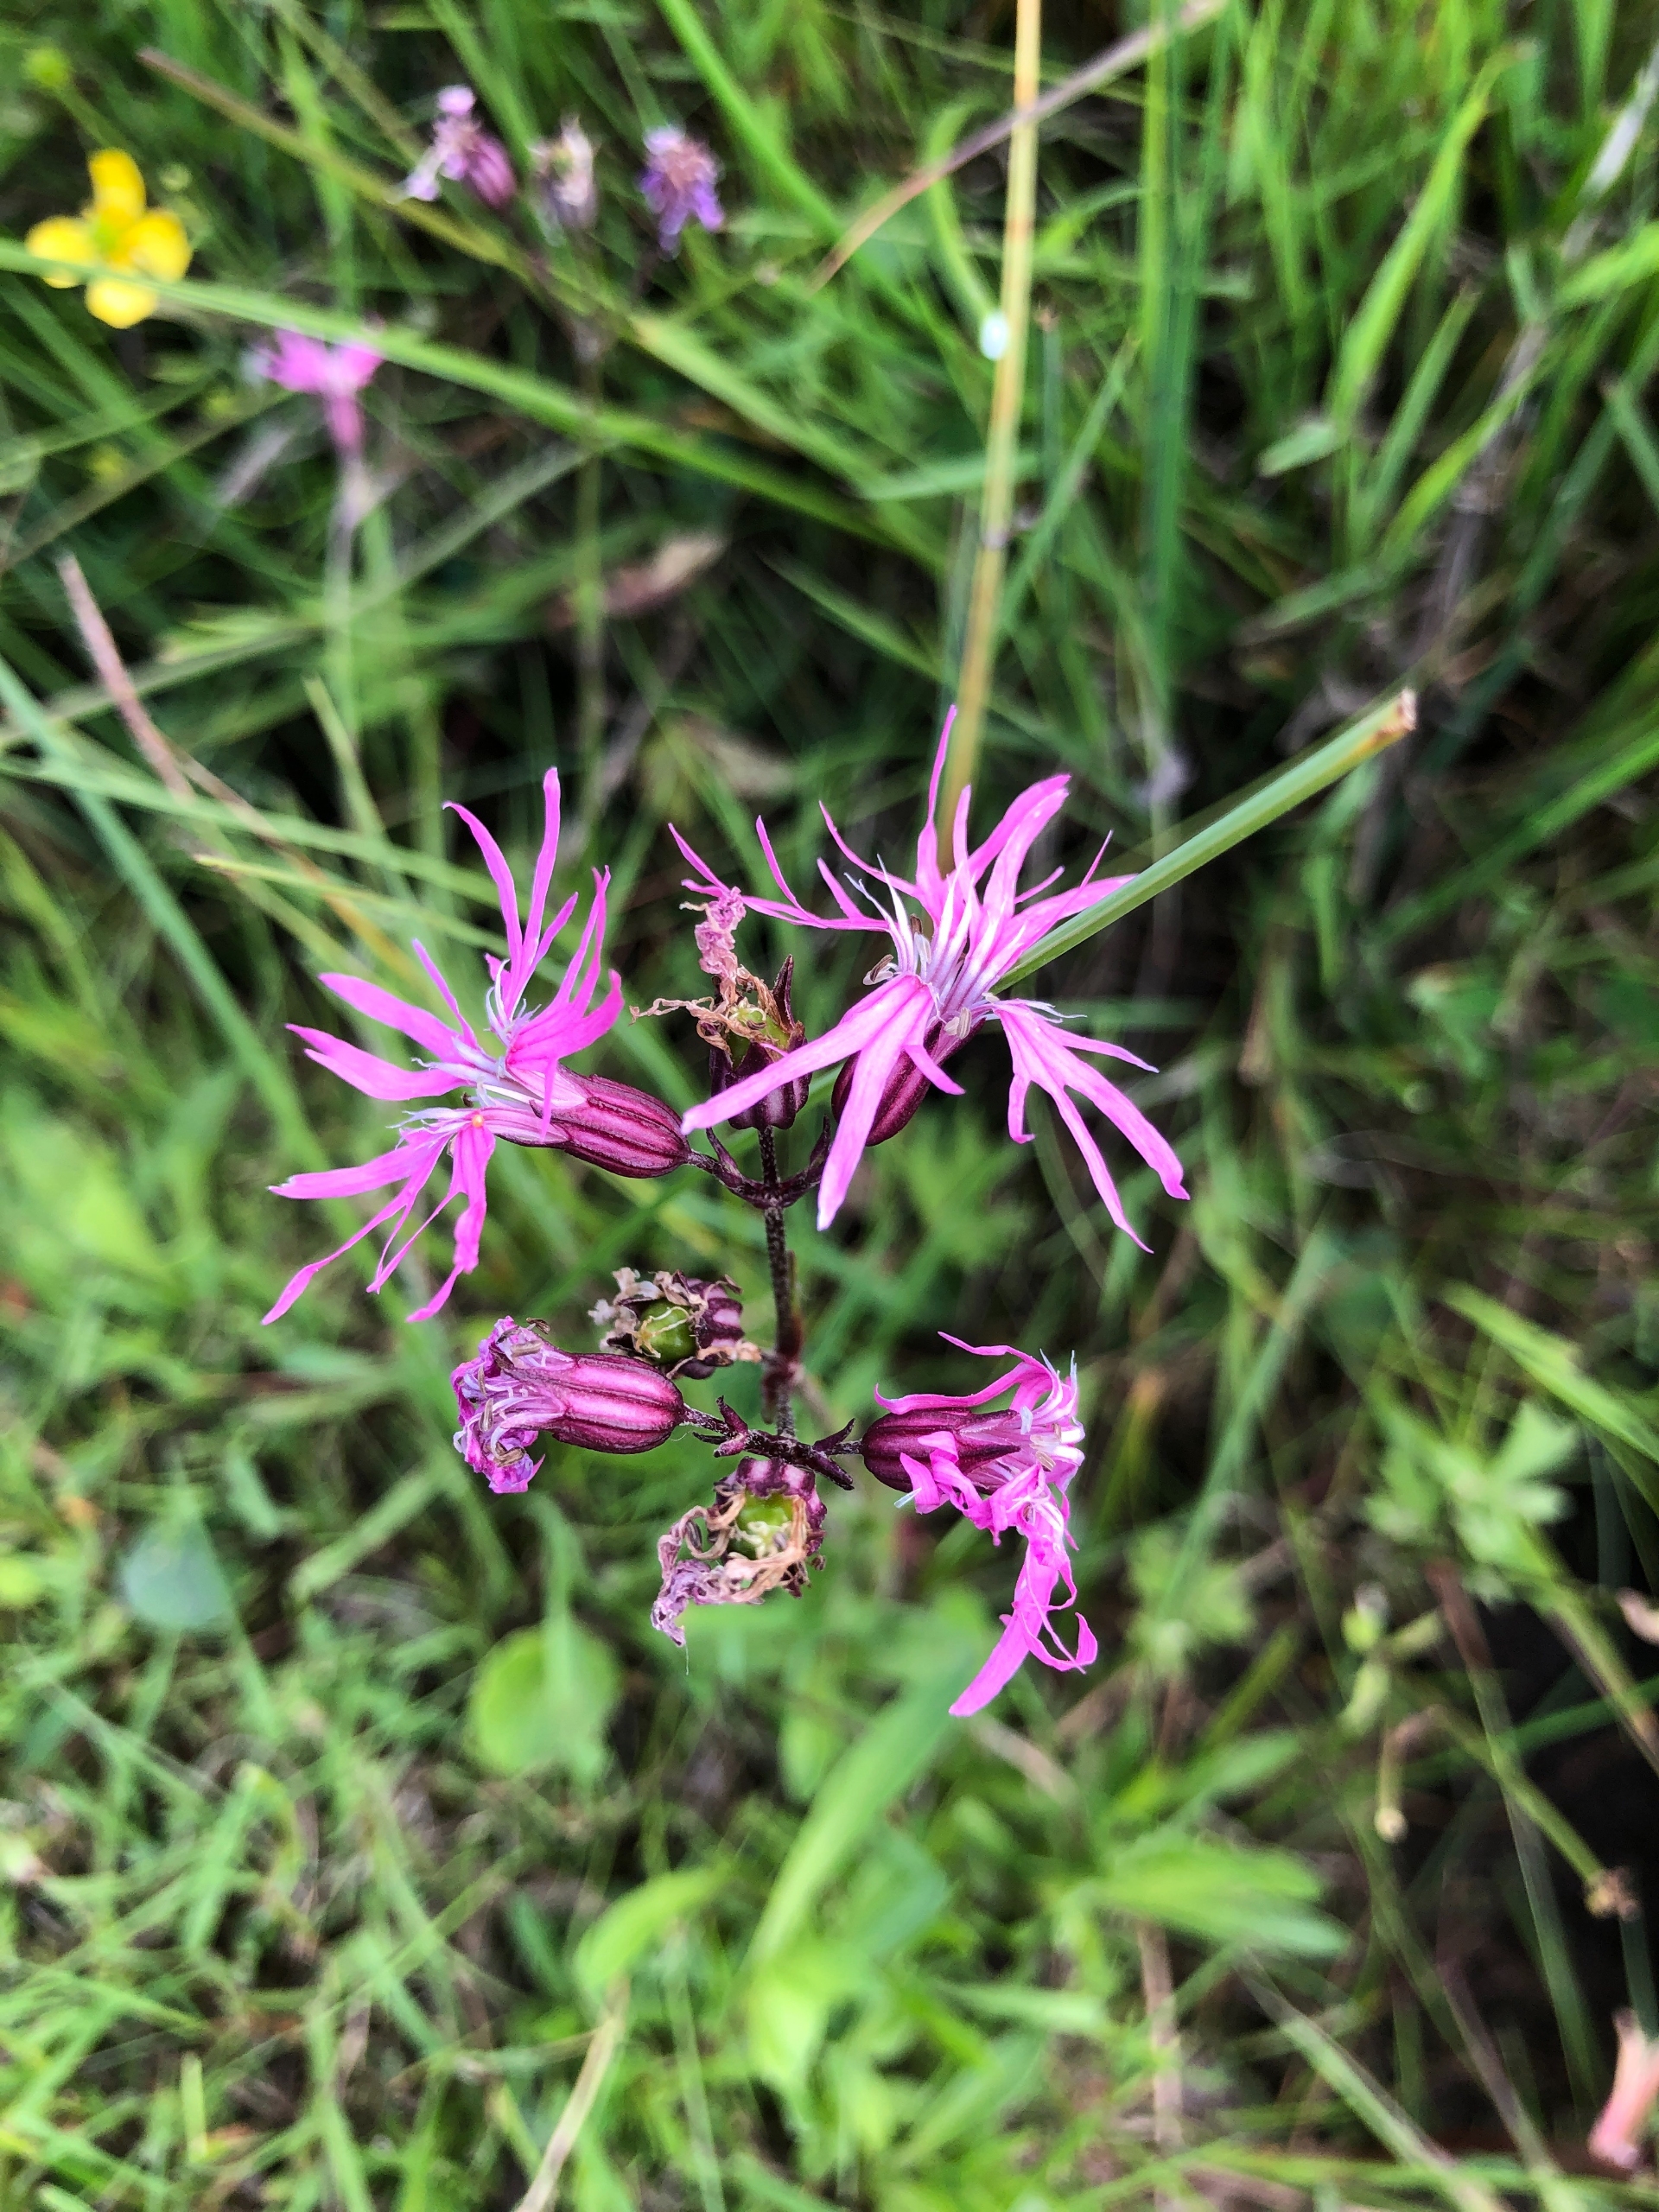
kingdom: Plantae
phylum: Tracheophyta
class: Magnoliopsida
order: Caryophyllales
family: Caryophyllaceae
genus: Silene
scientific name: Silene flos-cuculi
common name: Trævlekrone
